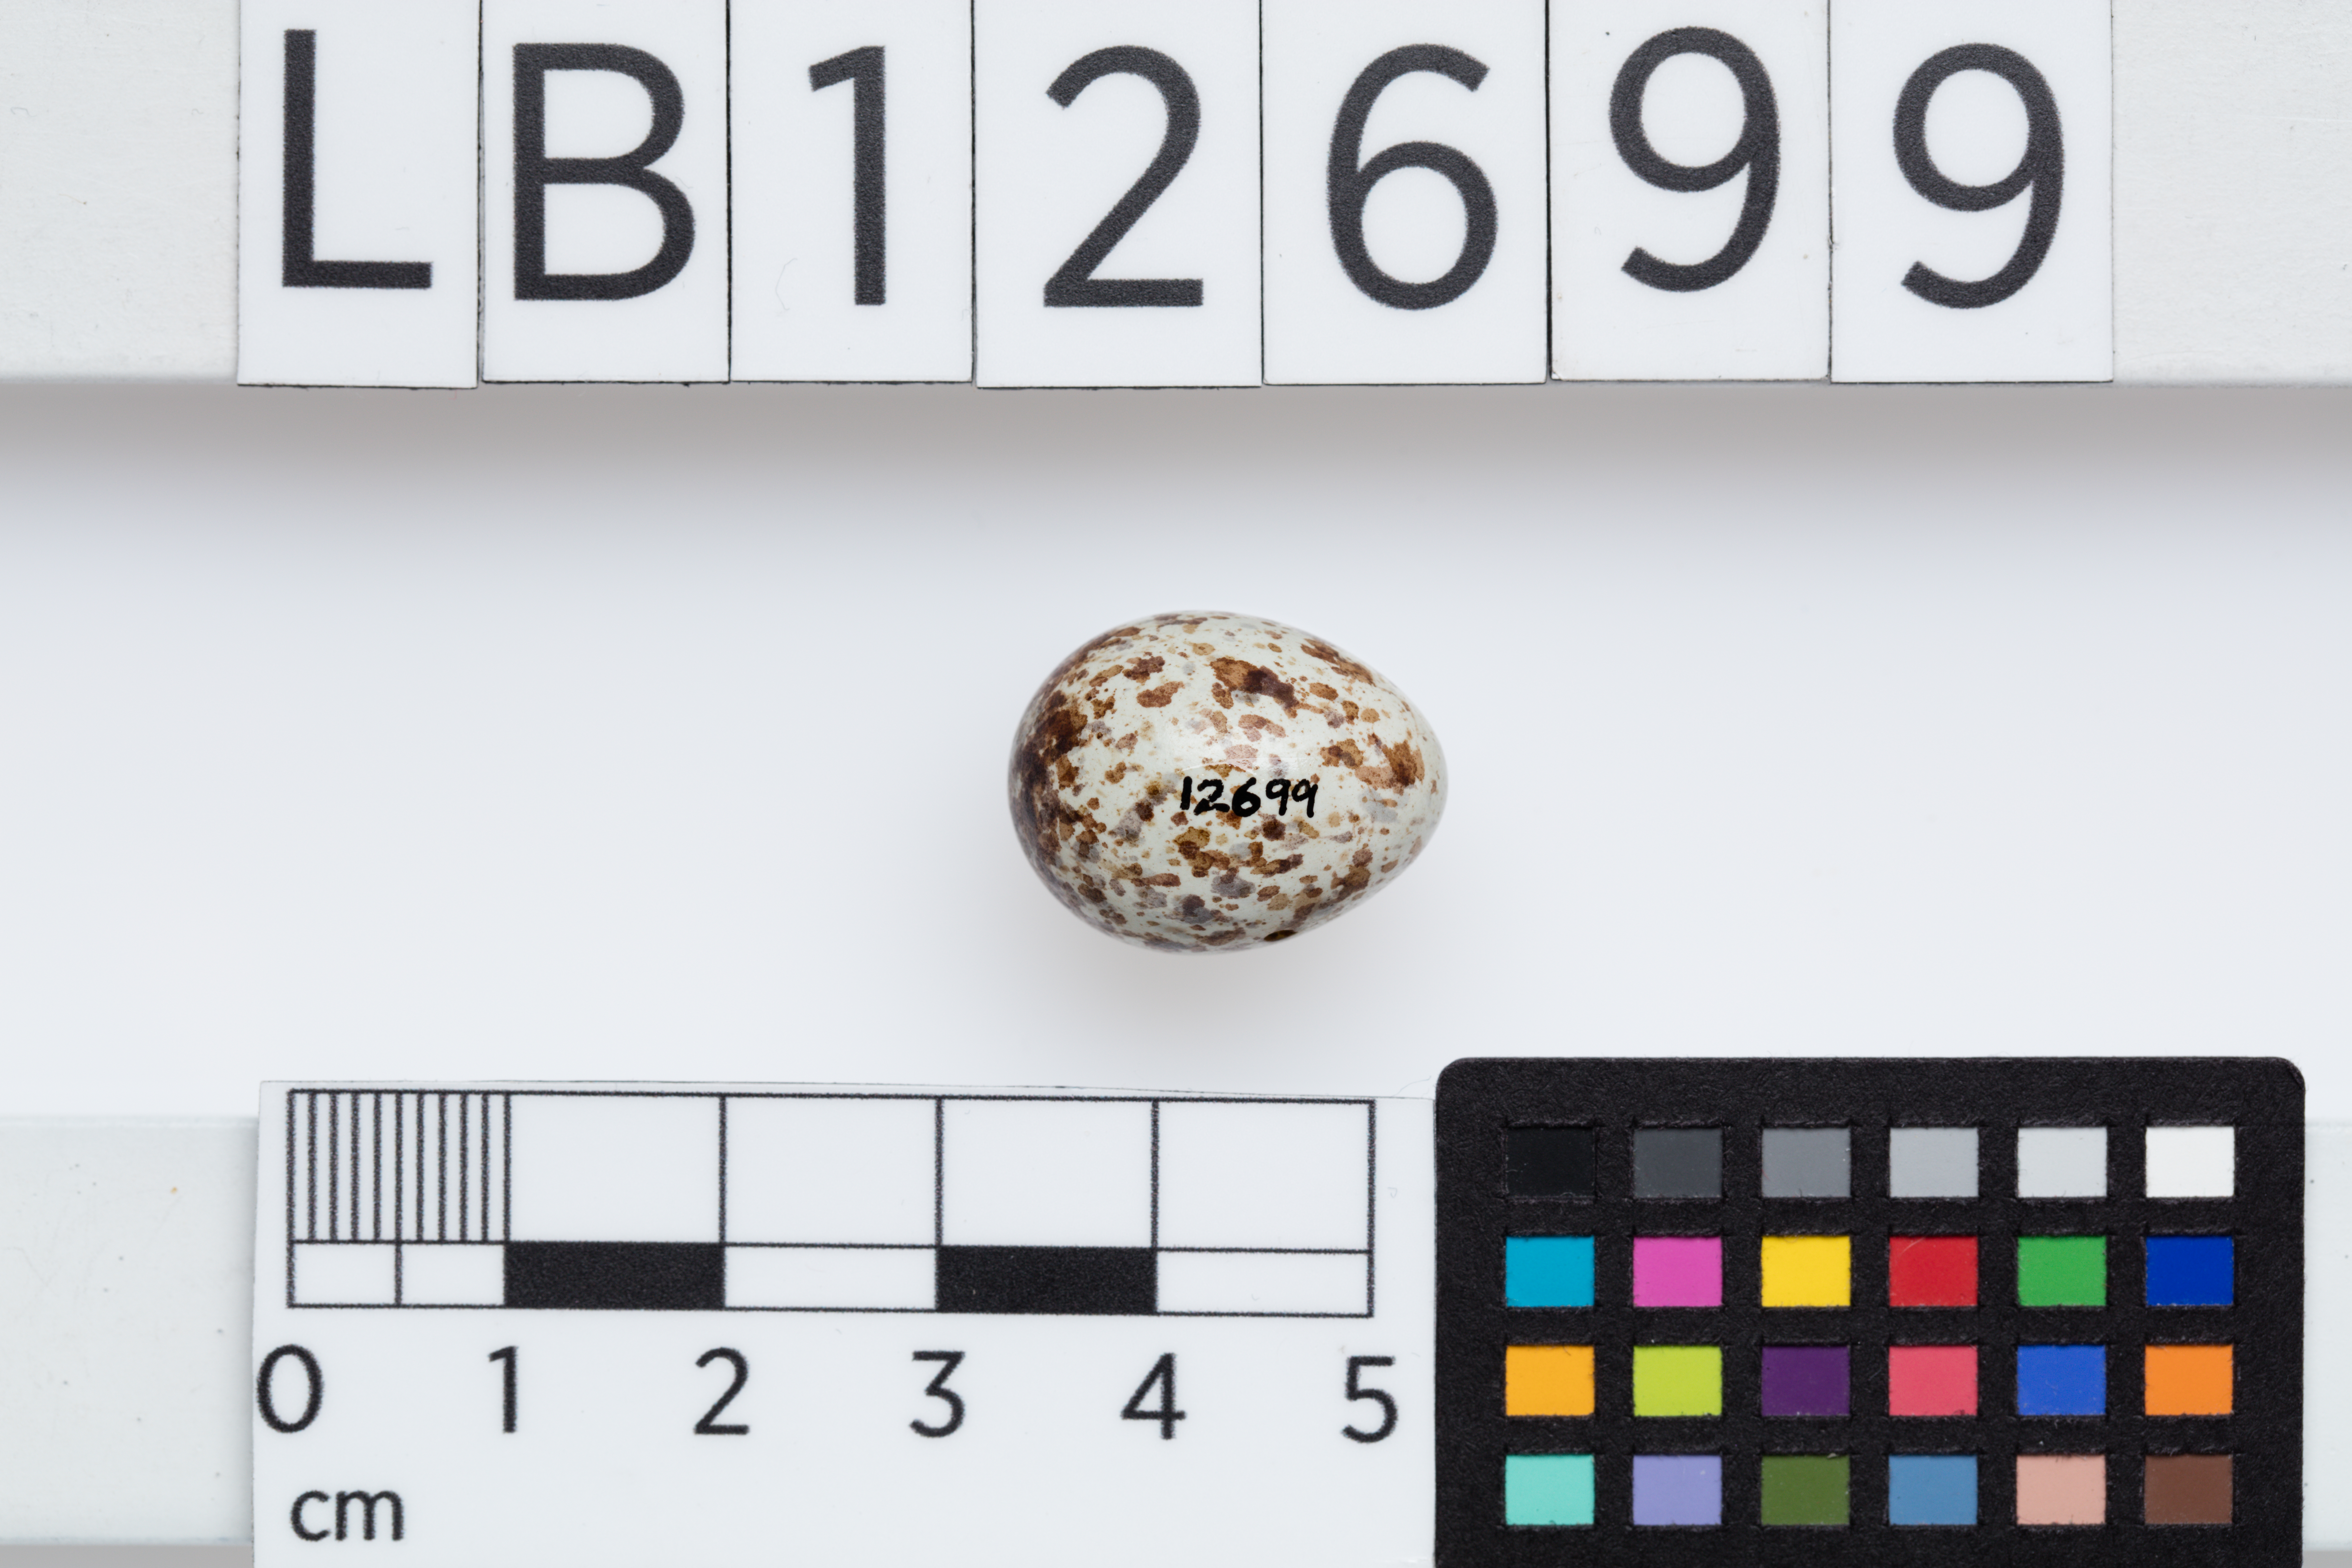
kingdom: Animalia
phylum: Chordata
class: Aves
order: Passeriformes
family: Campephagidae
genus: Lalage
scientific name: Lalage maculosa
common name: Polynesian triller
